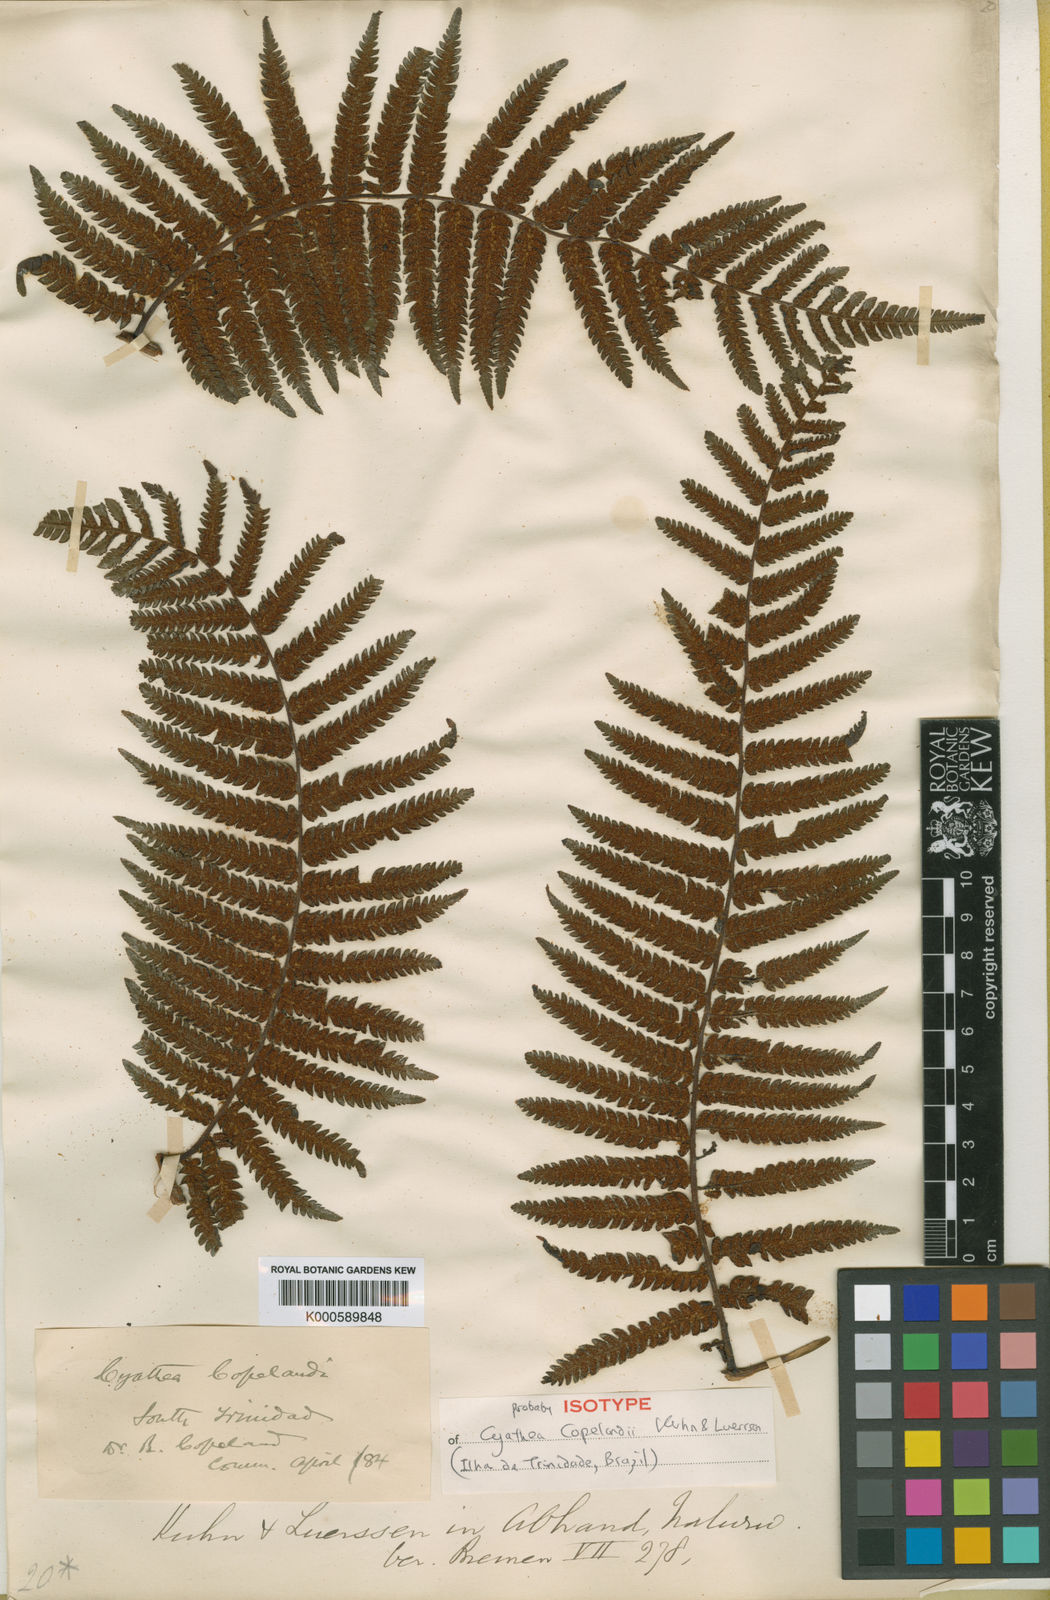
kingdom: Plantae
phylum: Tracheophyta
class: Polypodiopsida
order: Cyatheales
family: Cyatheaceae
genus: Cyathea
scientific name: Cyathea delgadii
